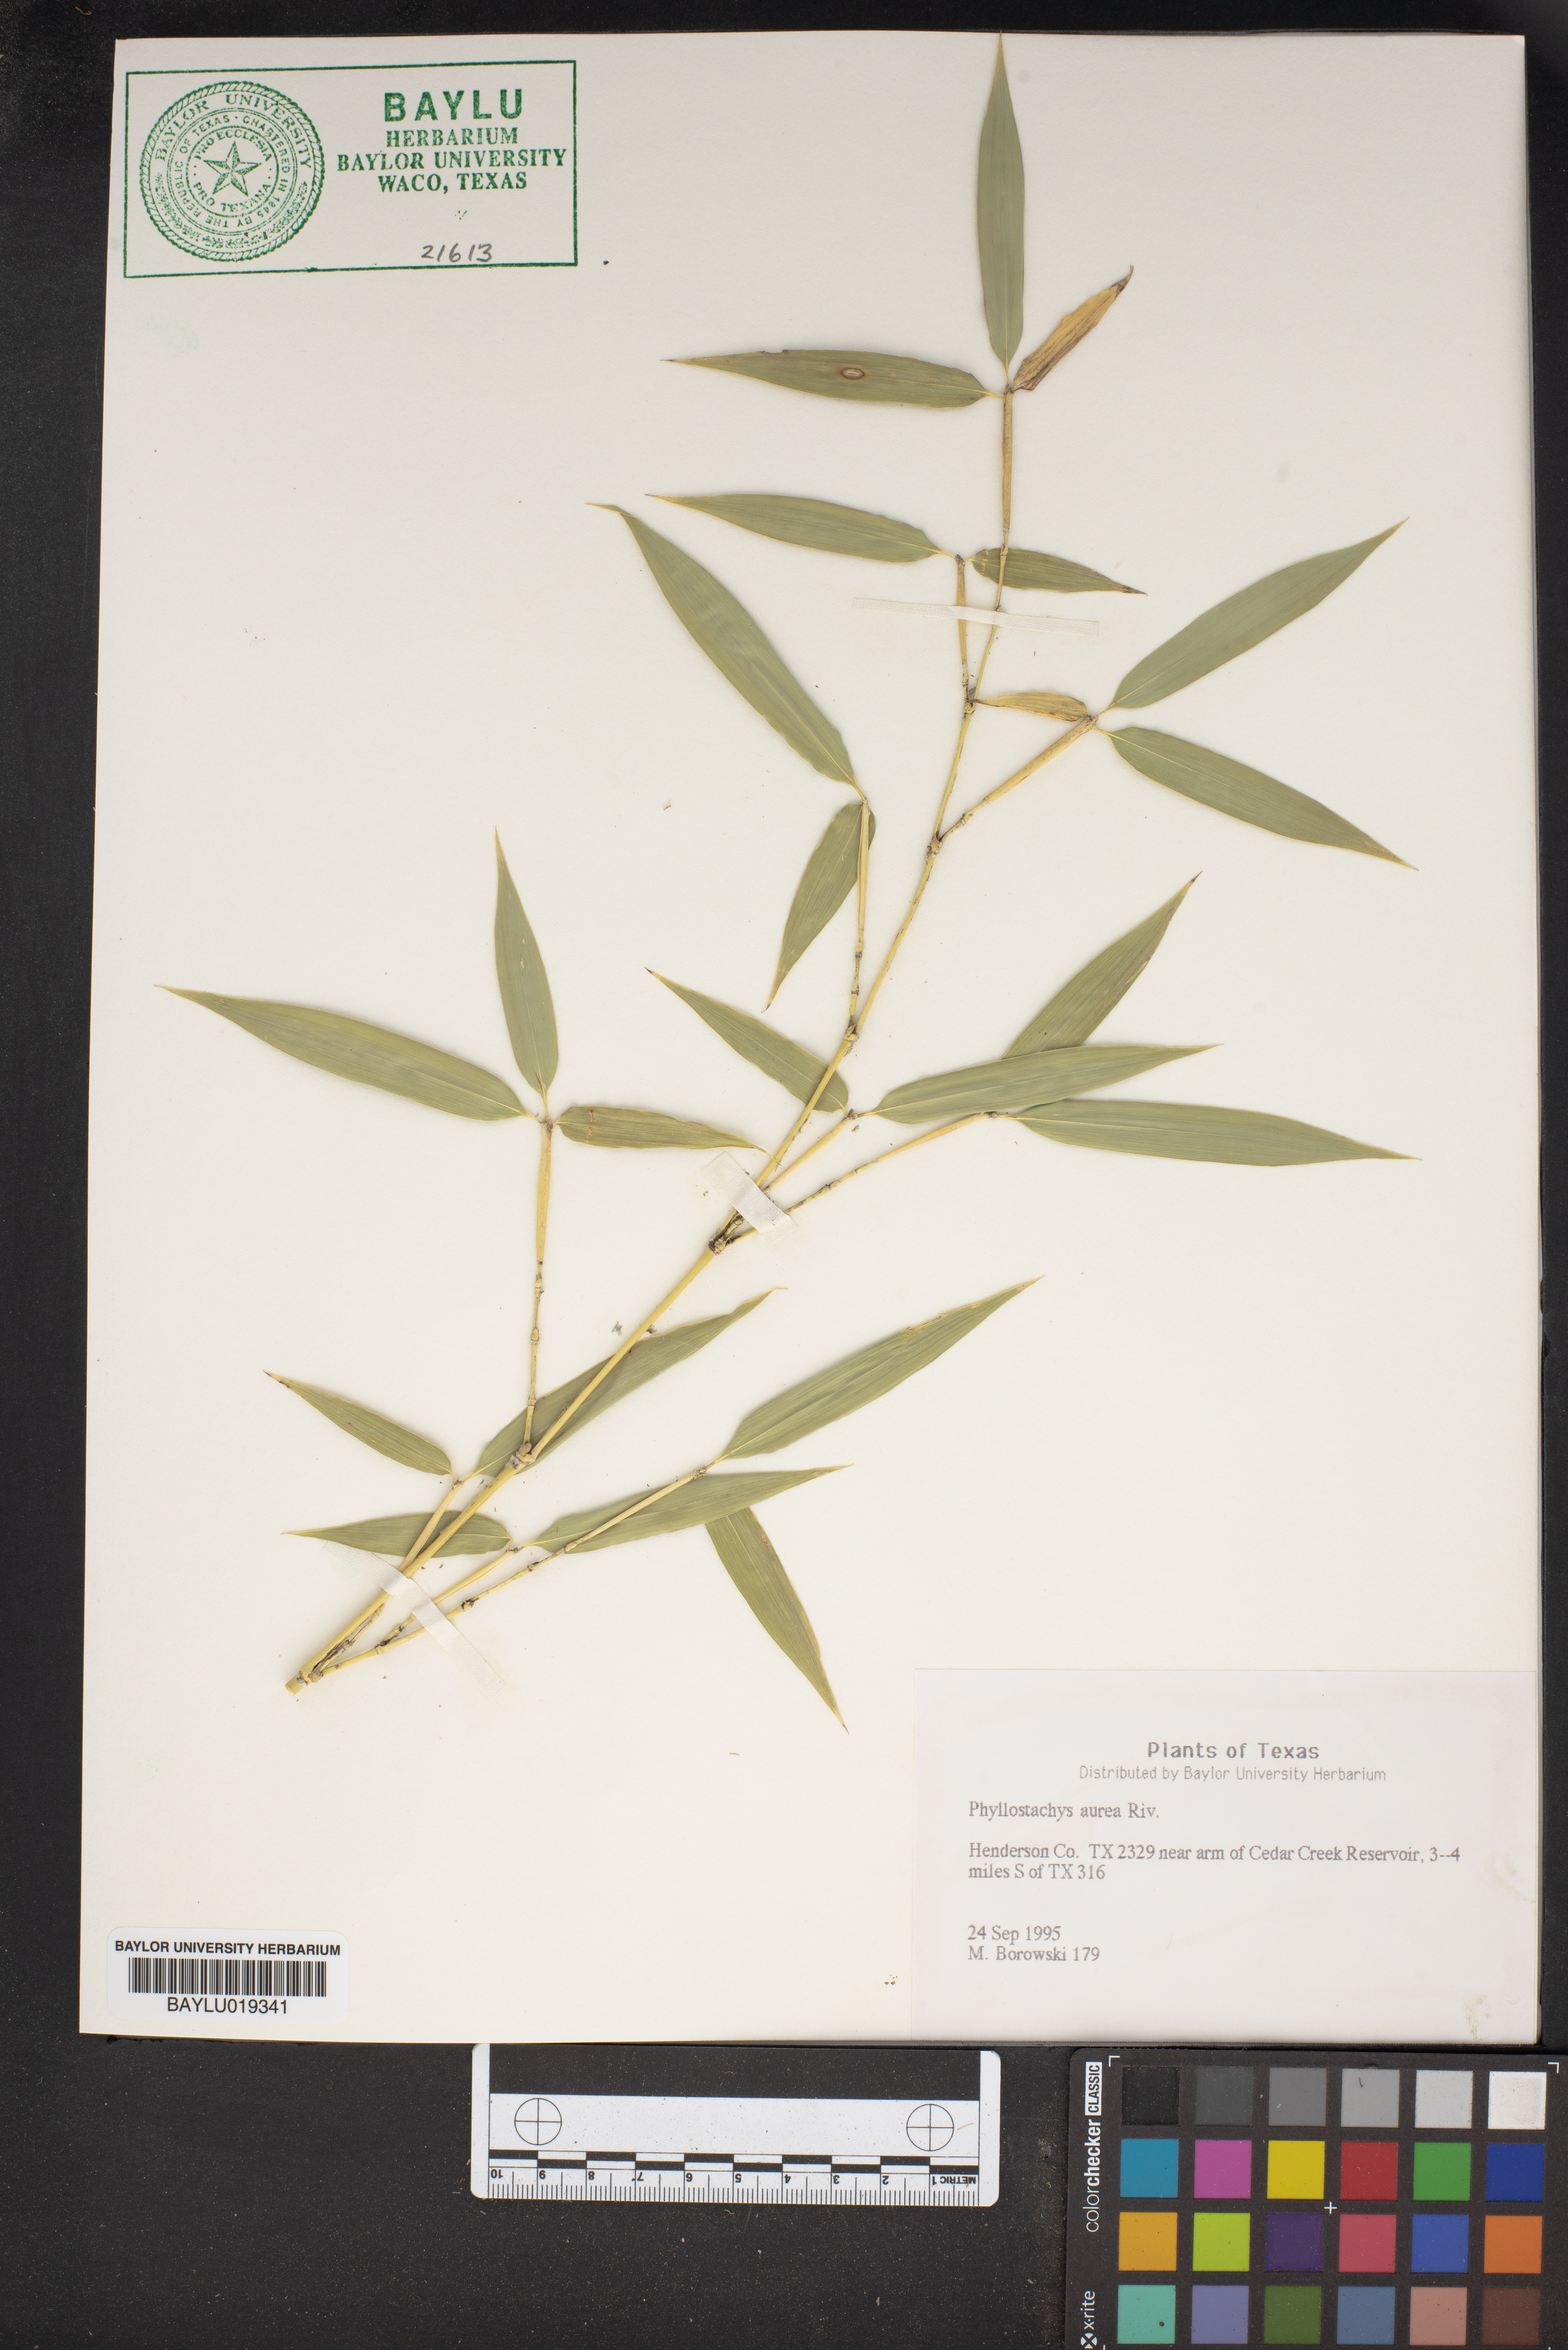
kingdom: Plantae
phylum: Tracheophyta
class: Liliopsida
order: Poales
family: Poaceae
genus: Phyllostachys
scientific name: Phyllostachys aurea
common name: Golden bamboo
